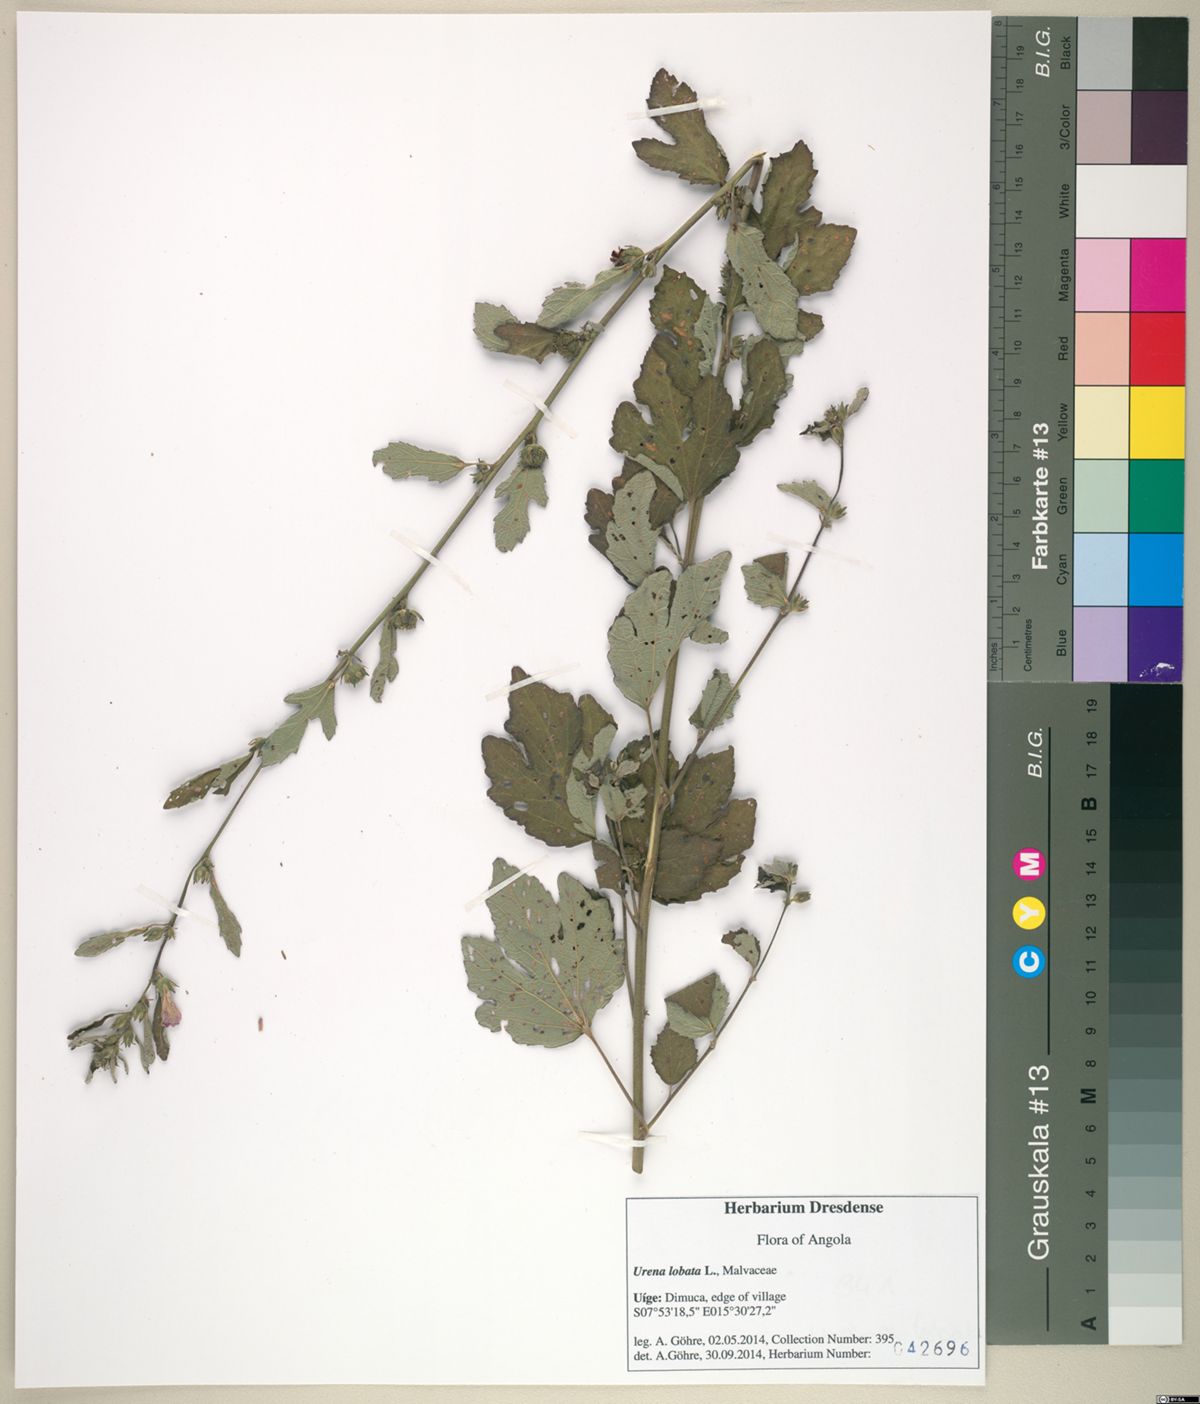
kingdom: Plantae
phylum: Tracheophyta
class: Magnoliopsida
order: Malvales
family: Malvaceae
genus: Urena
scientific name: Urena lobata
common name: Caesarweed
